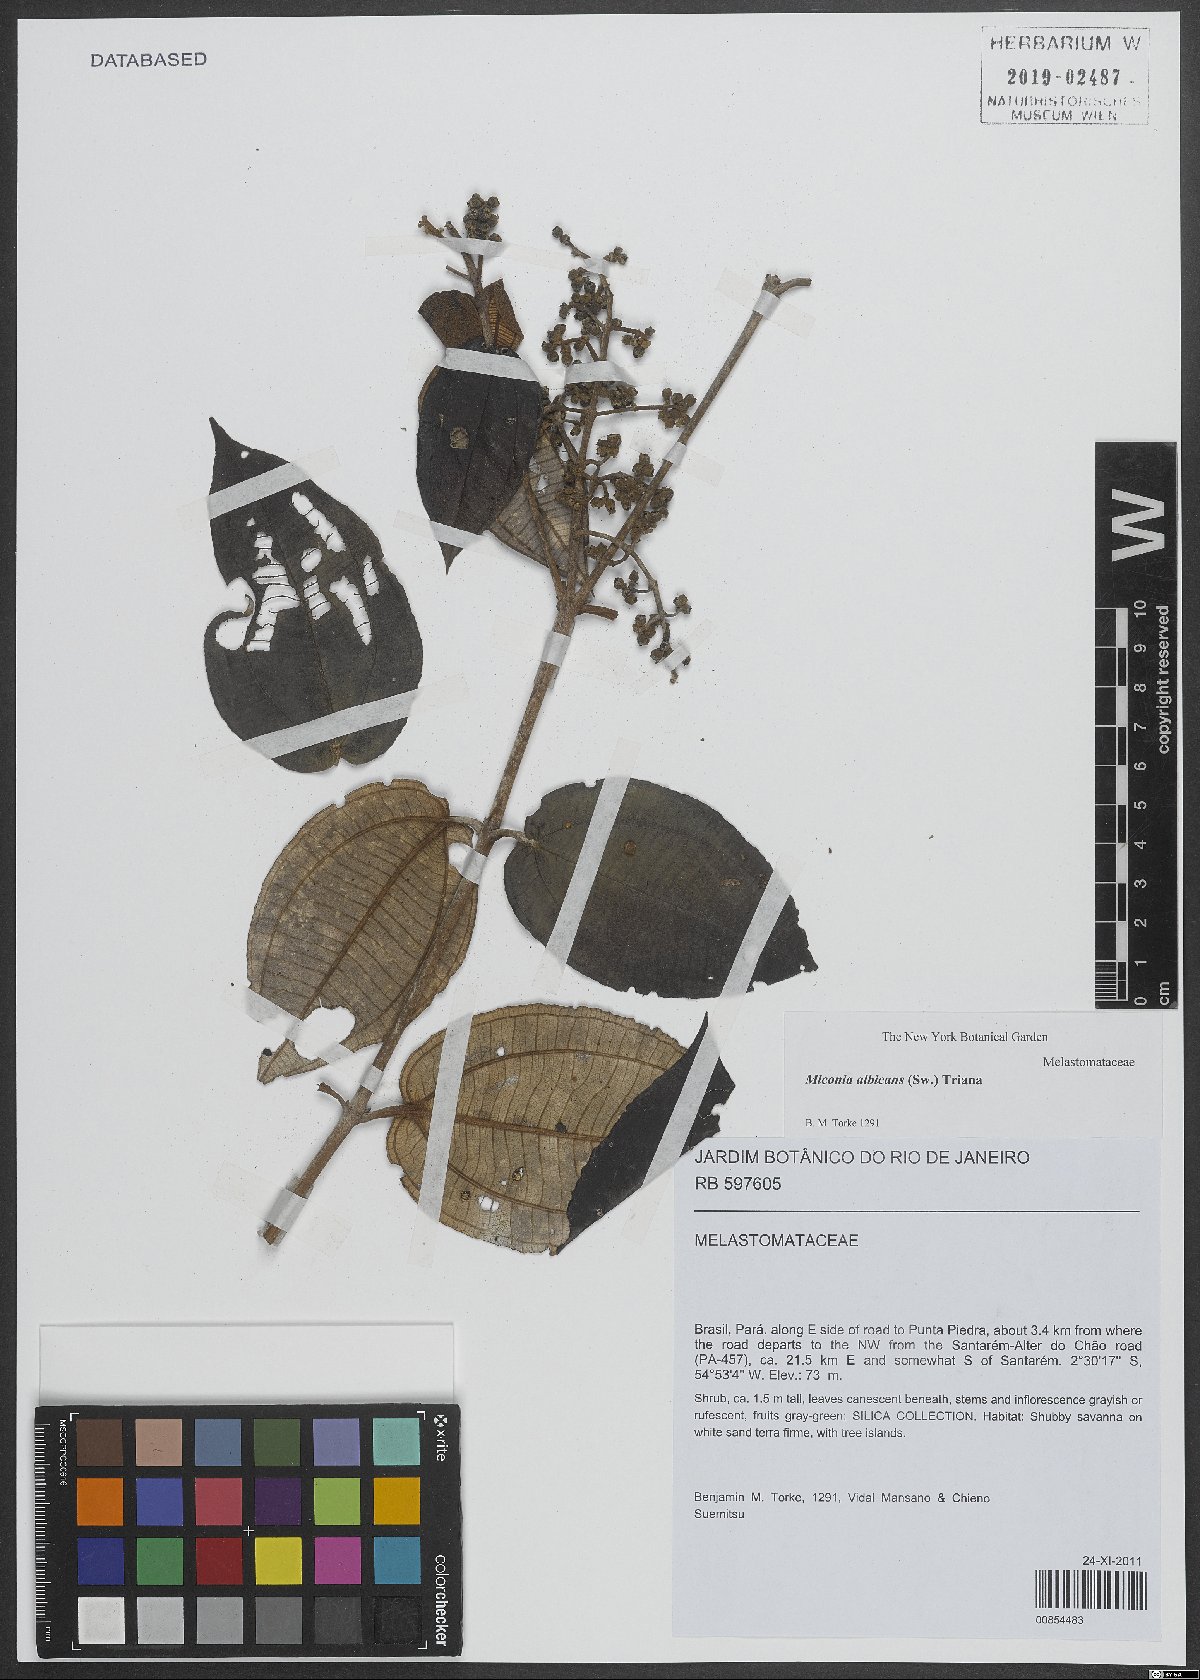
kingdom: Plantae
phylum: Tracheophyta
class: Magnoliopsida
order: Myrtales
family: Melastomataceae
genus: Miconia
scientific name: Miconia albicans
